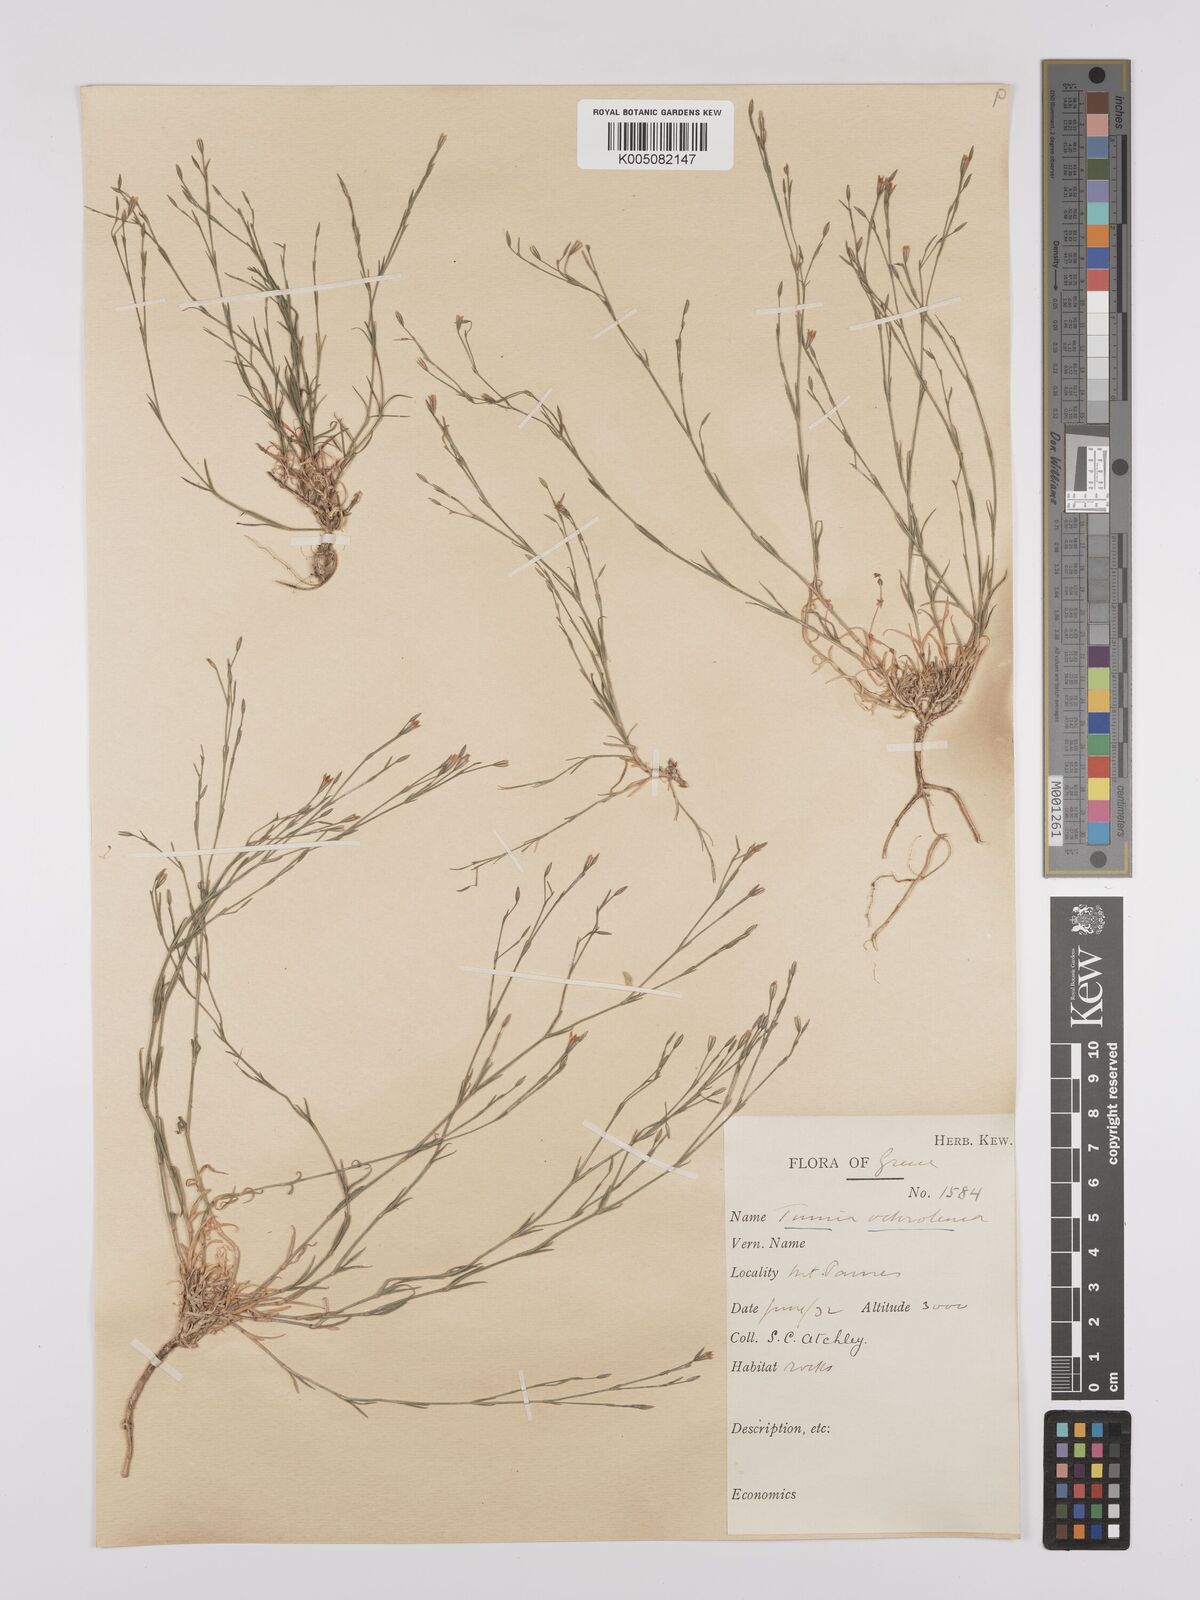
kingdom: Plantae
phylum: Tracheophyta
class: Magnoliopsida
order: Caryophyllales
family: Caryophyllaceae
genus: Petrorhagia
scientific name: Petrorhagia ochroleuca
